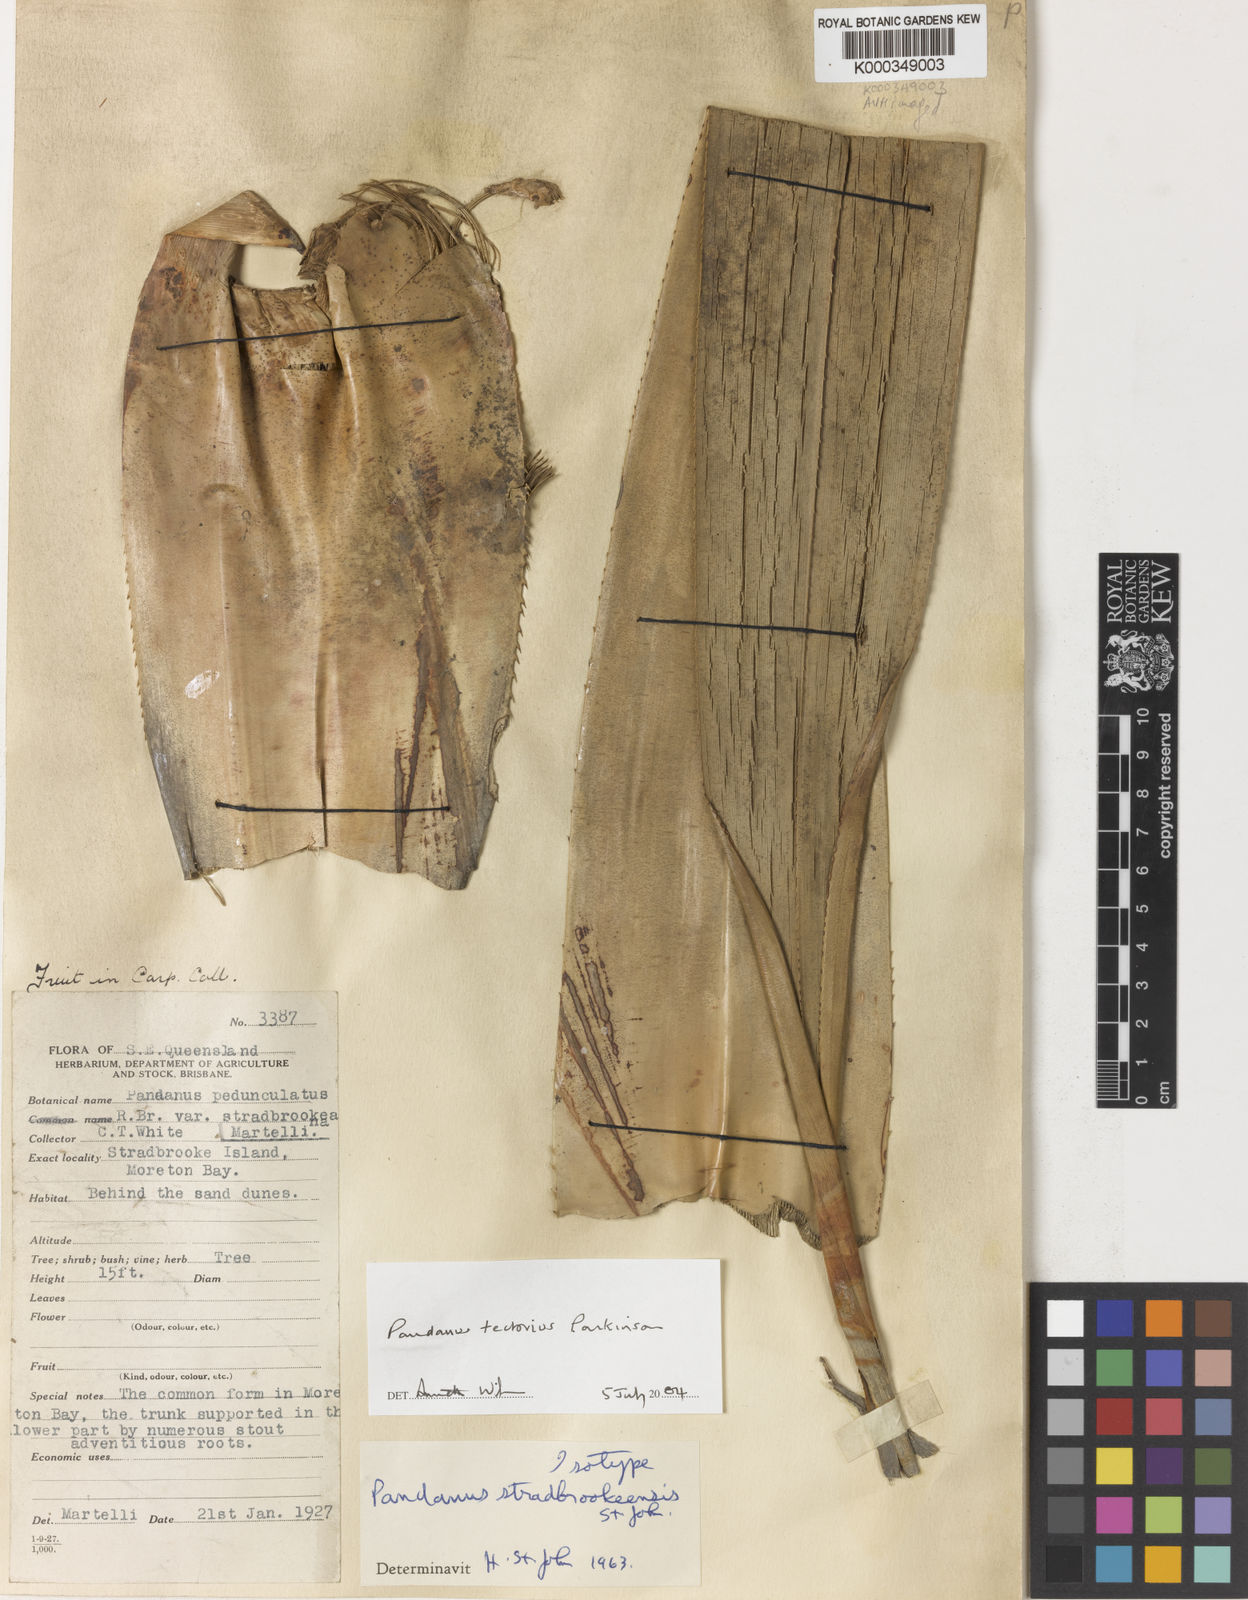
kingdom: Plantae
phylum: Tracheophyta
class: Liliopsida
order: Pandanales
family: Pandanaceae
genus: Pandanus
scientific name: Pandanus
